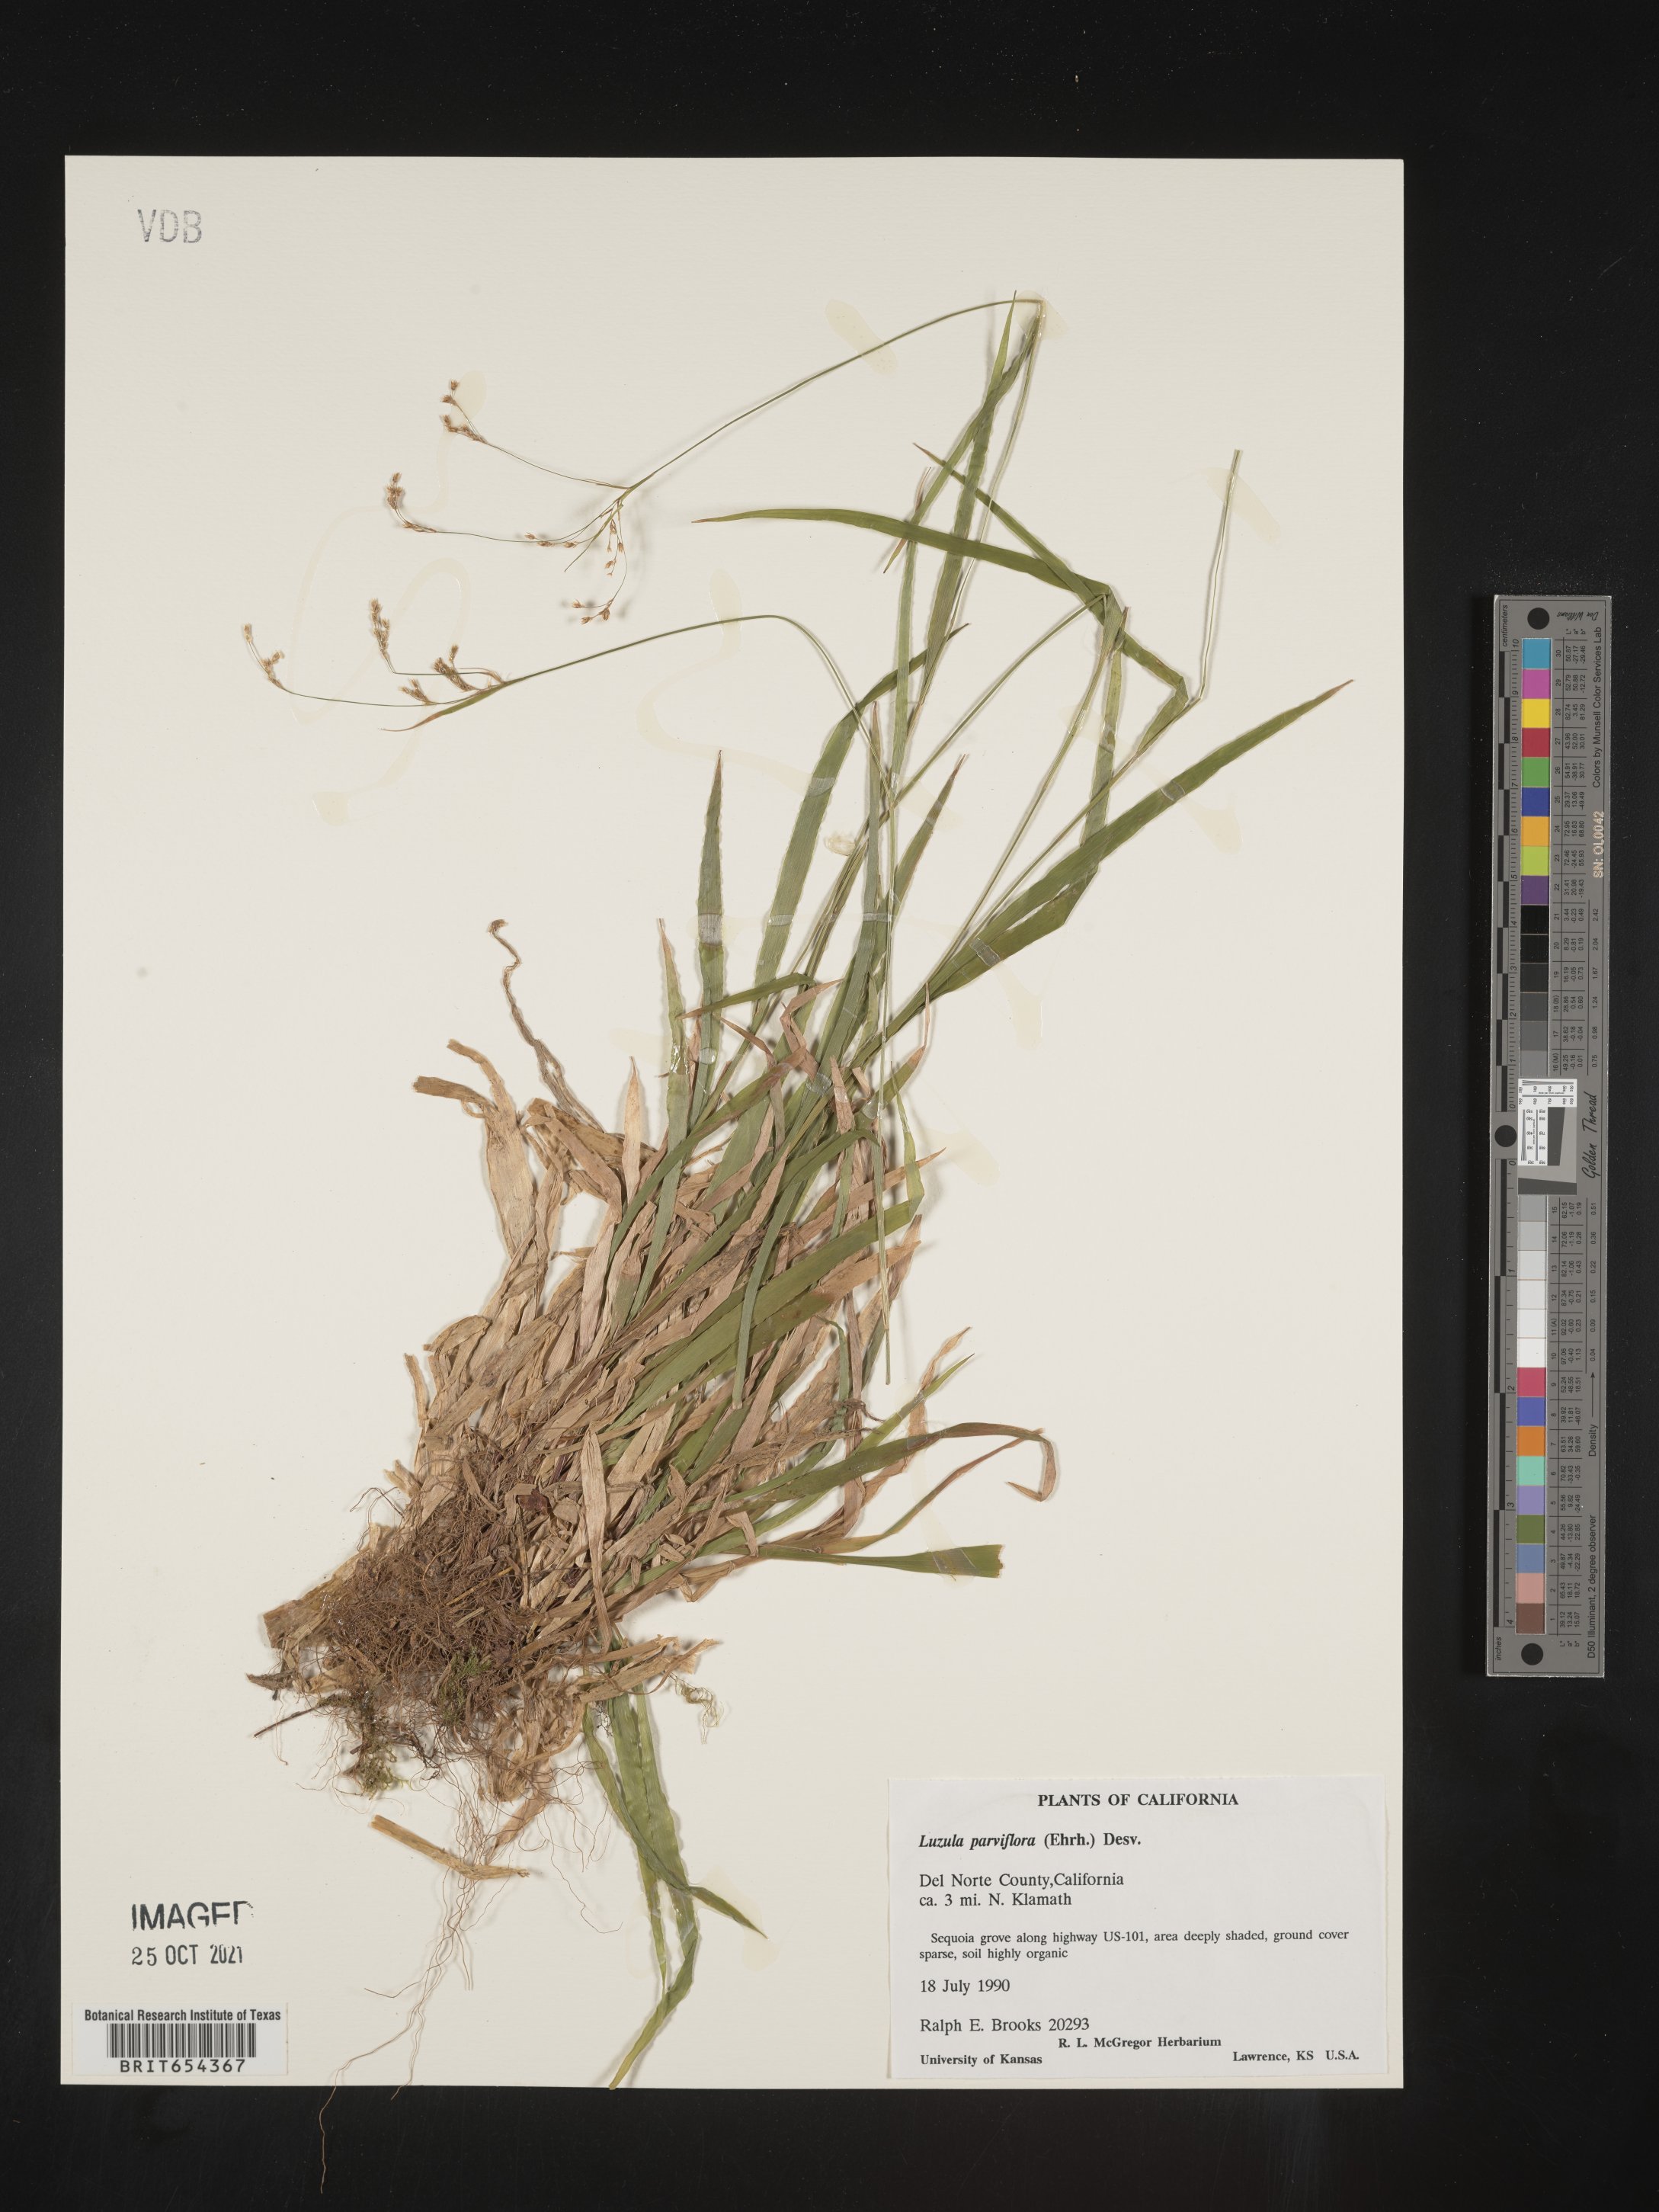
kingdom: Plantae
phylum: Tracheophyta
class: Liliopsida
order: Poales
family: Juncaceae
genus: Luzula
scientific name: Luzula parviflora
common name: Millet woodrush
